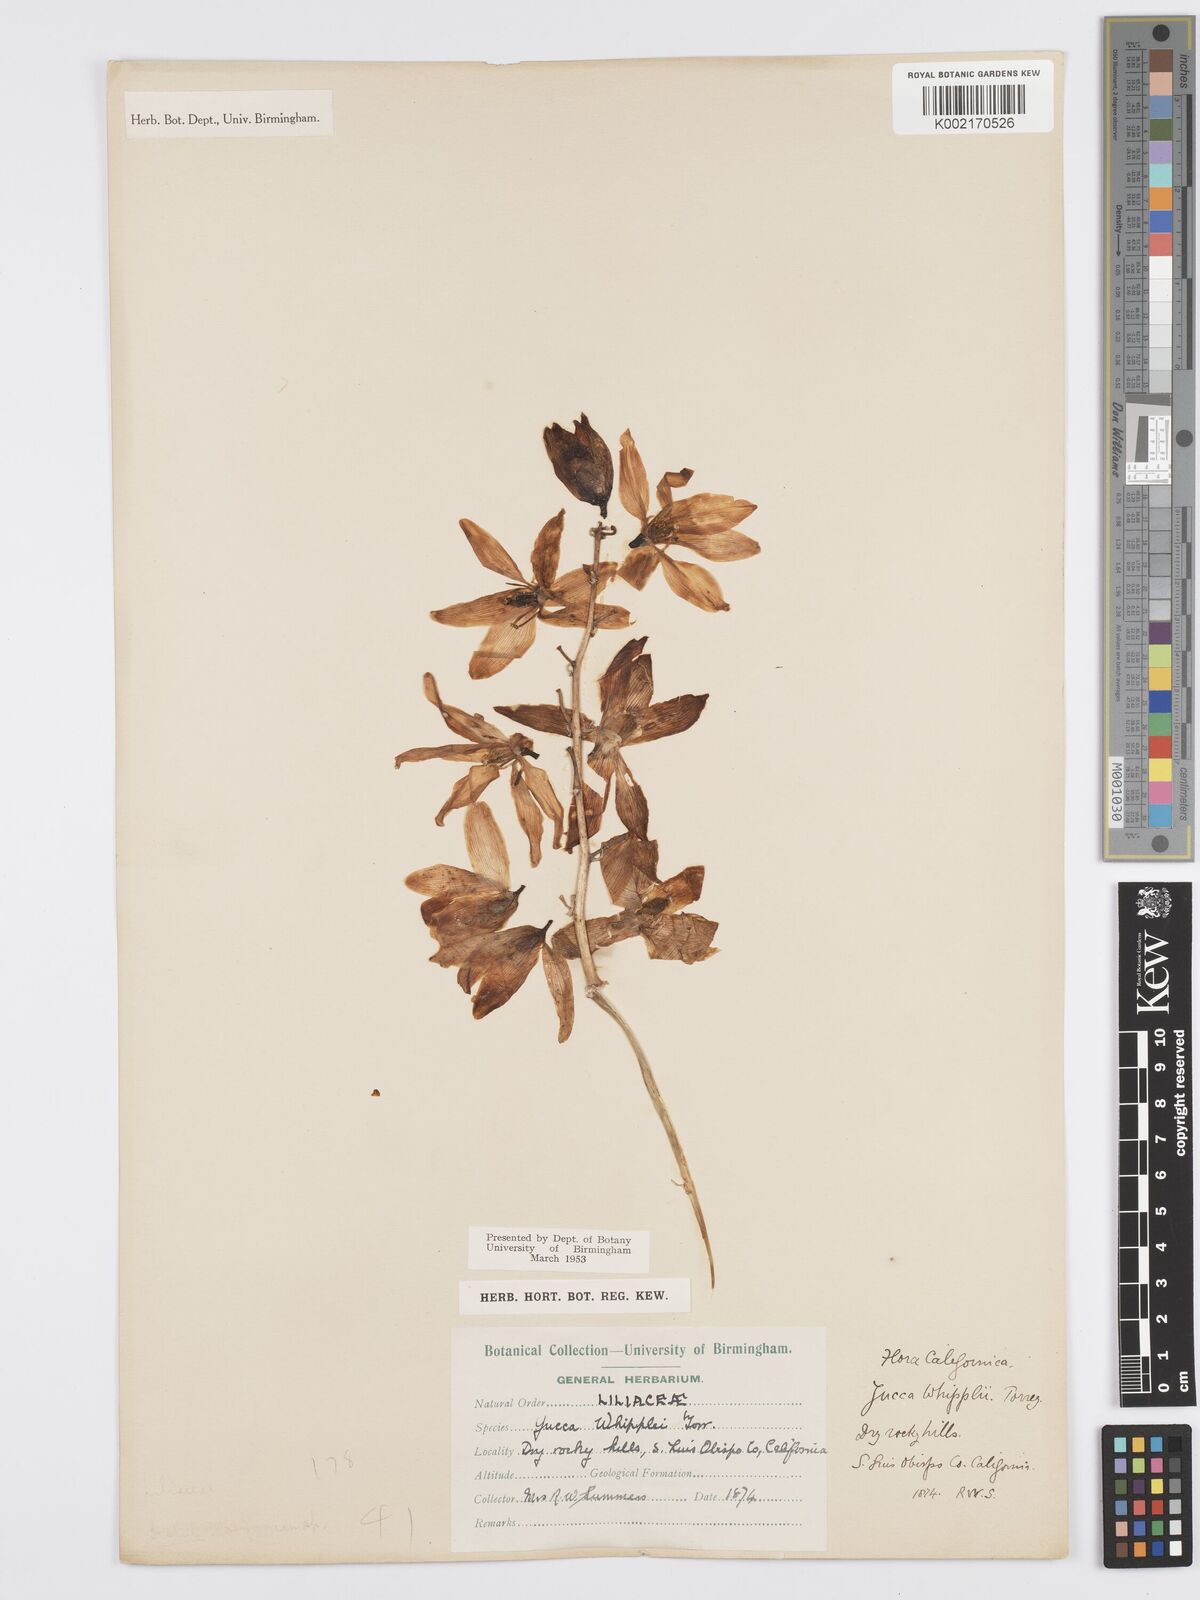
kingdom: Plantae
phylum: Tracheophyta
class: Liliopsida
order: Asparagales
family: Asparagaceae
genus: Hesperoyucca
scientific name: Hesperoyucca whipplei
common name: Our lord's-candle
